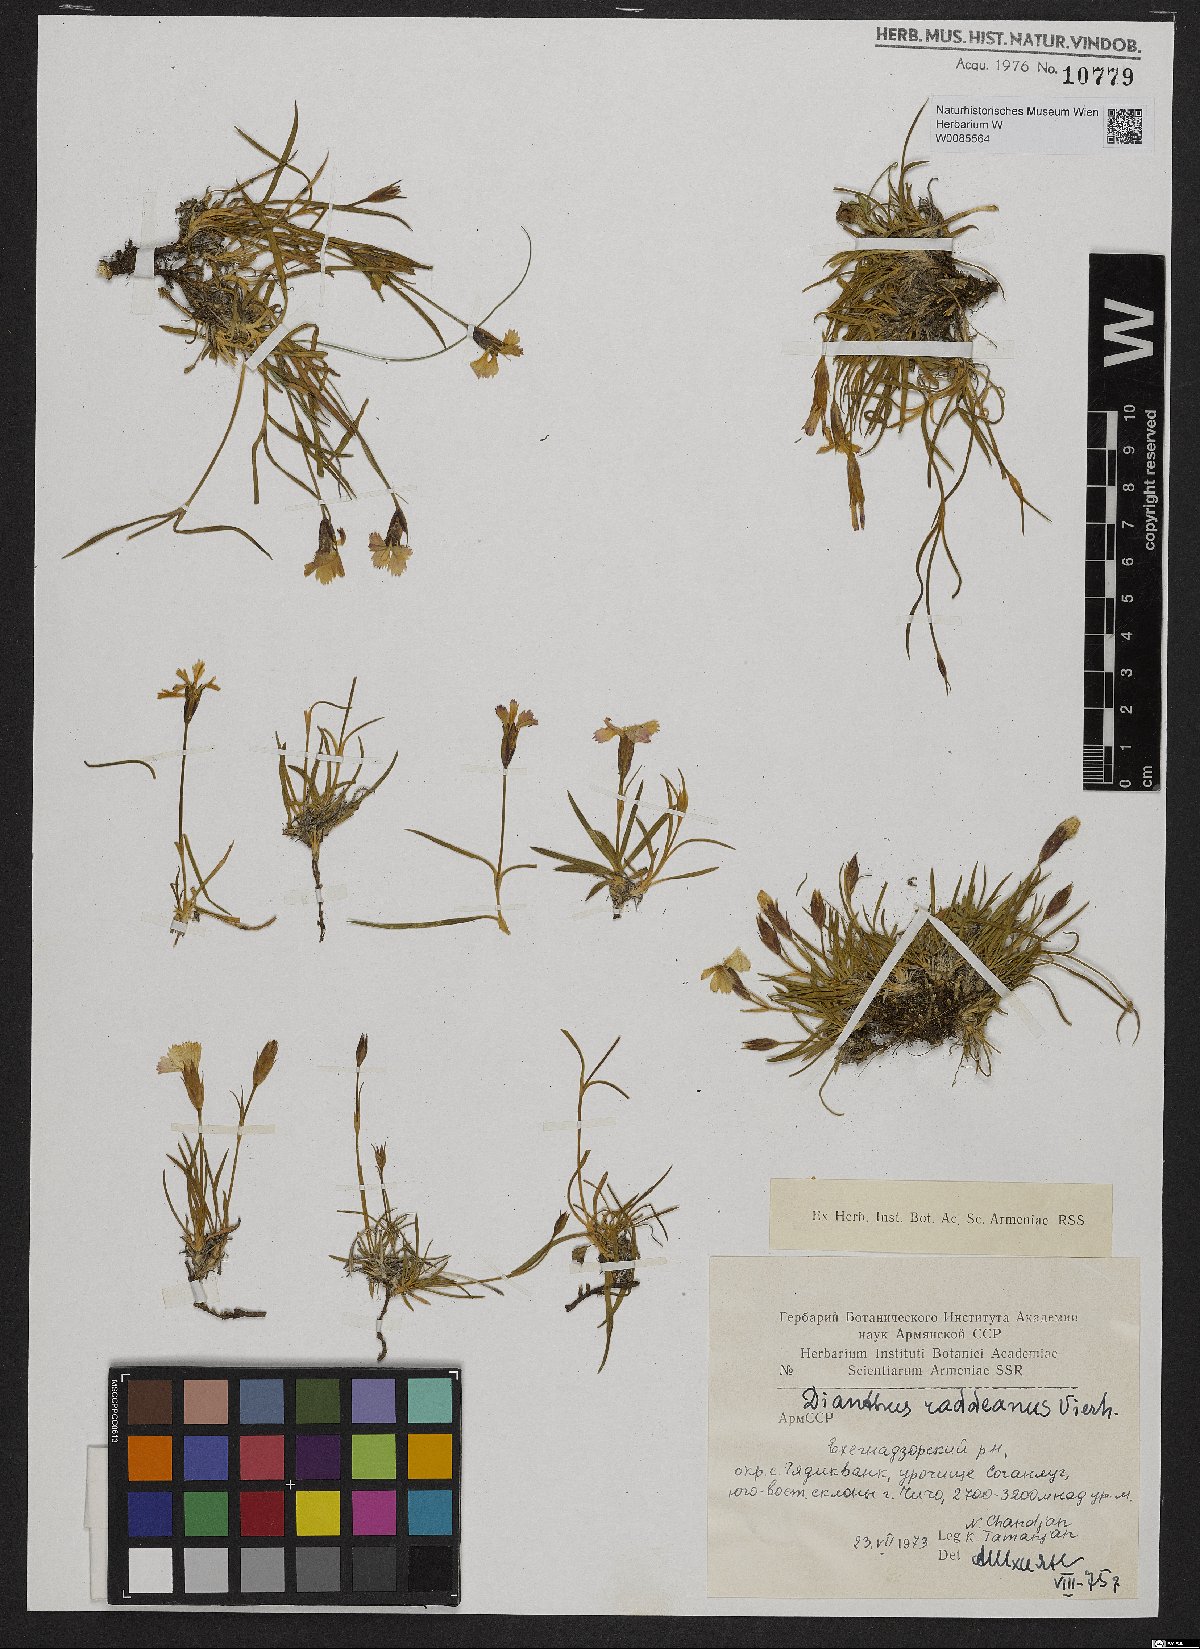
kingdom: Plantae
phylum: Tracheophyta
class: Magnoliopsida
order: Caryophyllales
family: Caryophyllaceae
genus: Dianthus
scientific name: Dianthus raddeanus
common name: Radde's pink
